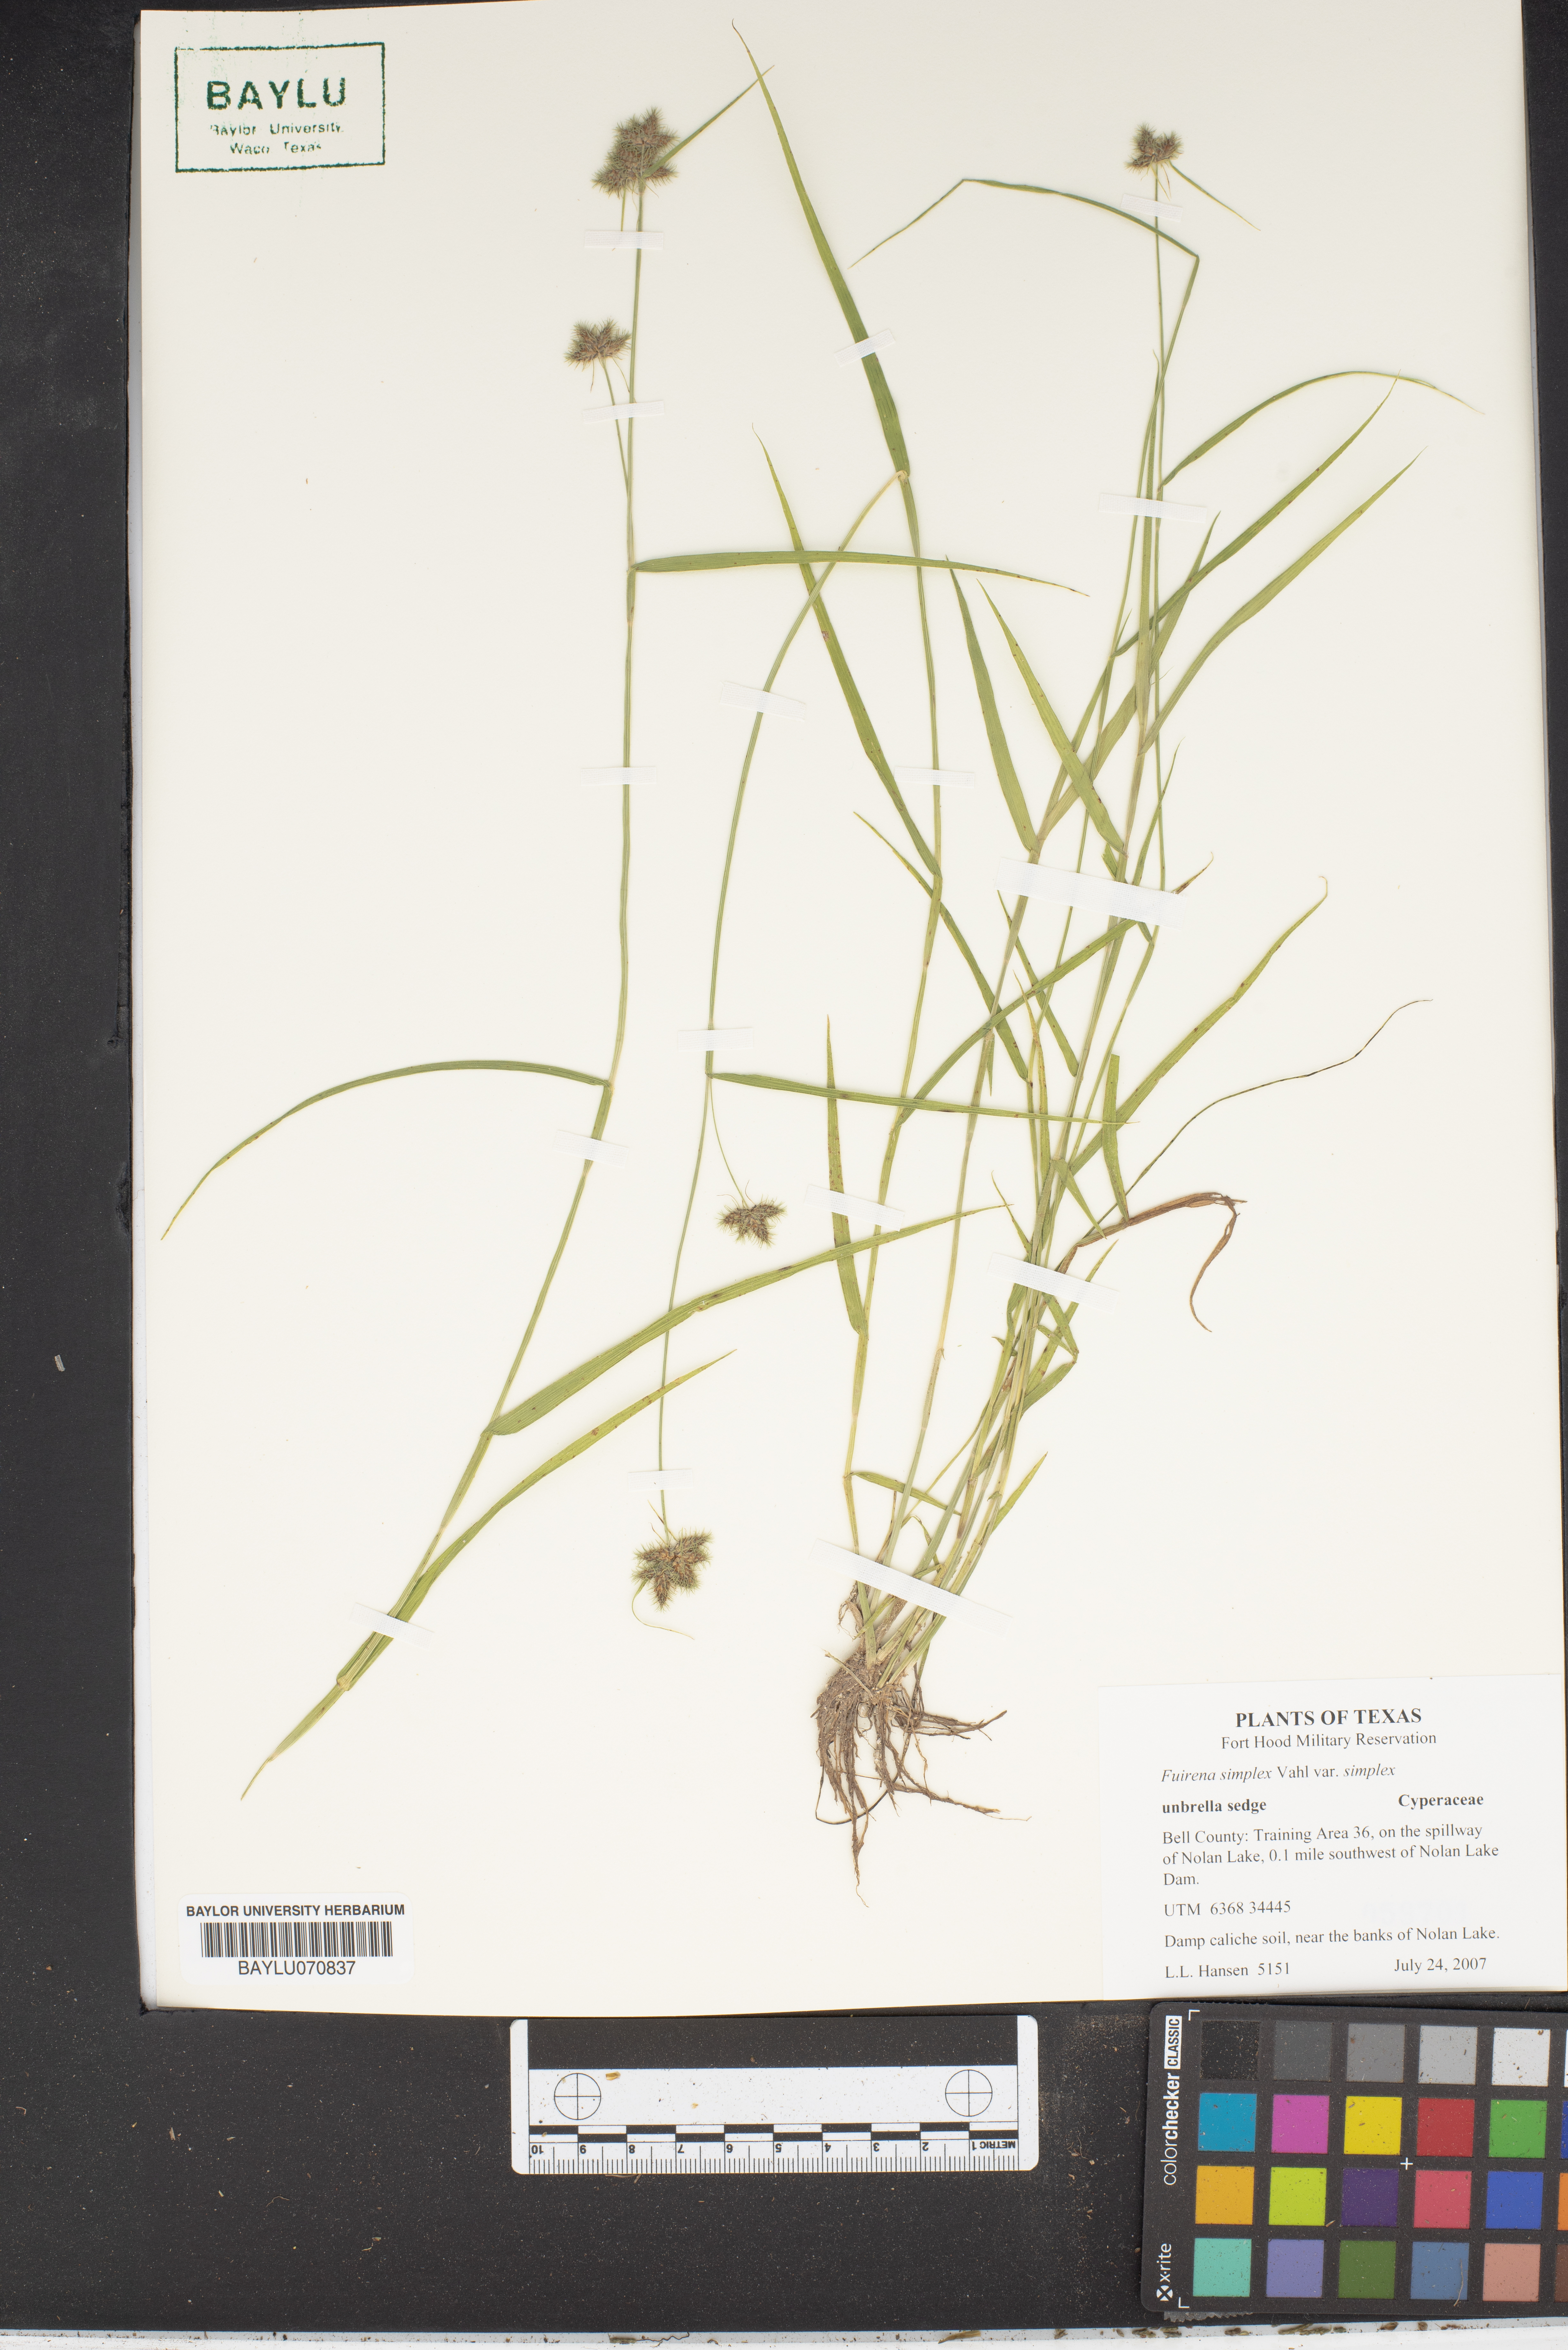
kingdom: Plantae
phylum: Tracheophyta
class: Liliopsida
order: Poales
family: Cyperaceae
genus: Fuirena
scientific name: Fuirena simplex
